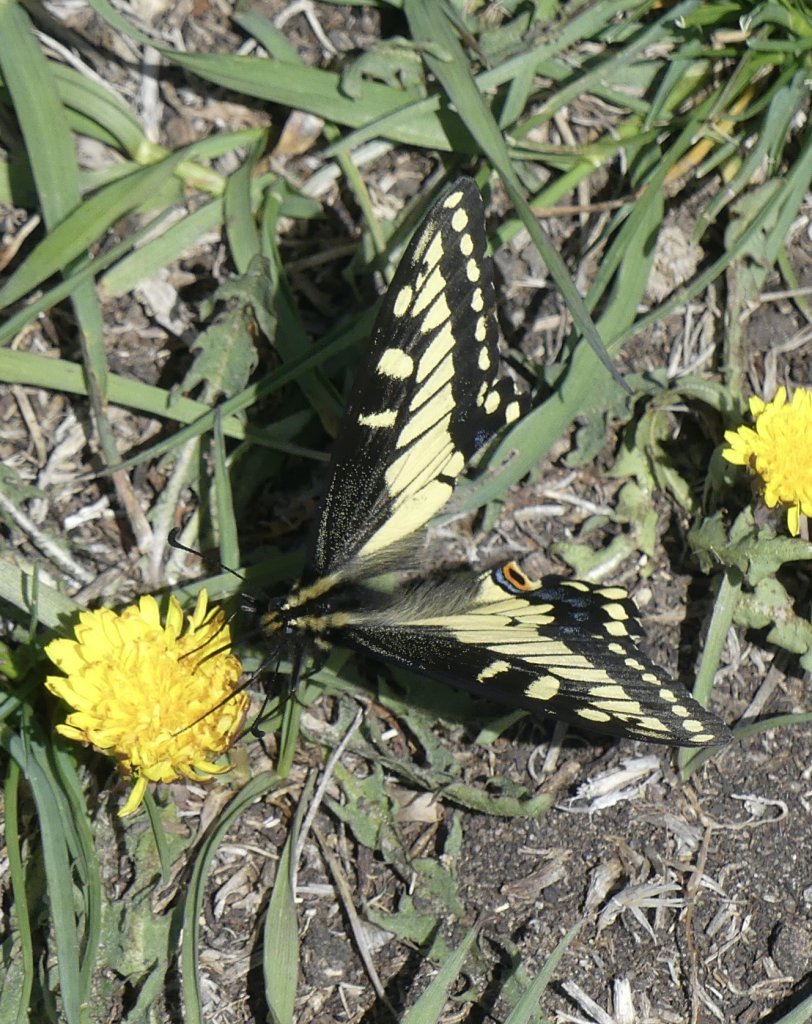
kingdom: Animalia
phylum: Arthropoda
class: Insecta
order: Lepidoptera
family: Papilionidae
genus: Papilio
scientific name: Papilio machaon
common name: Old World Swallowtail
